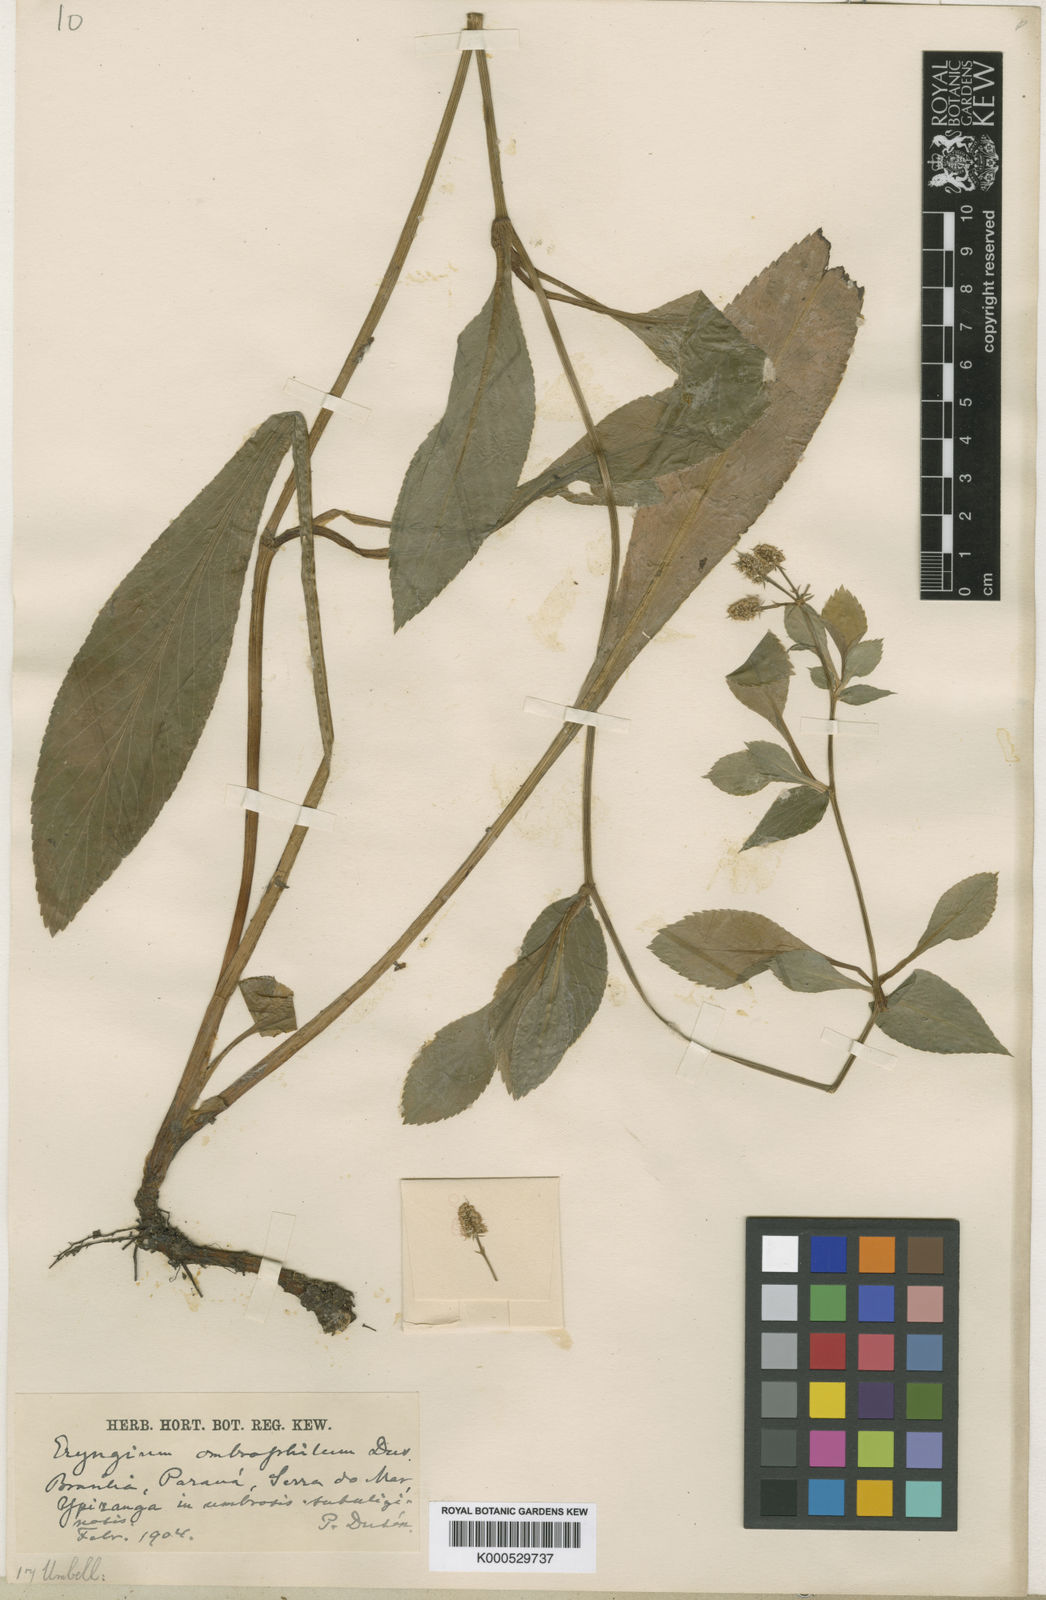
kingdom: Plantae
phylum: Tracheophyta
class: Magnoliopsida
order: Apiales
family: Apiaceae
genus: Eryngium
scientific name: Eryngium
